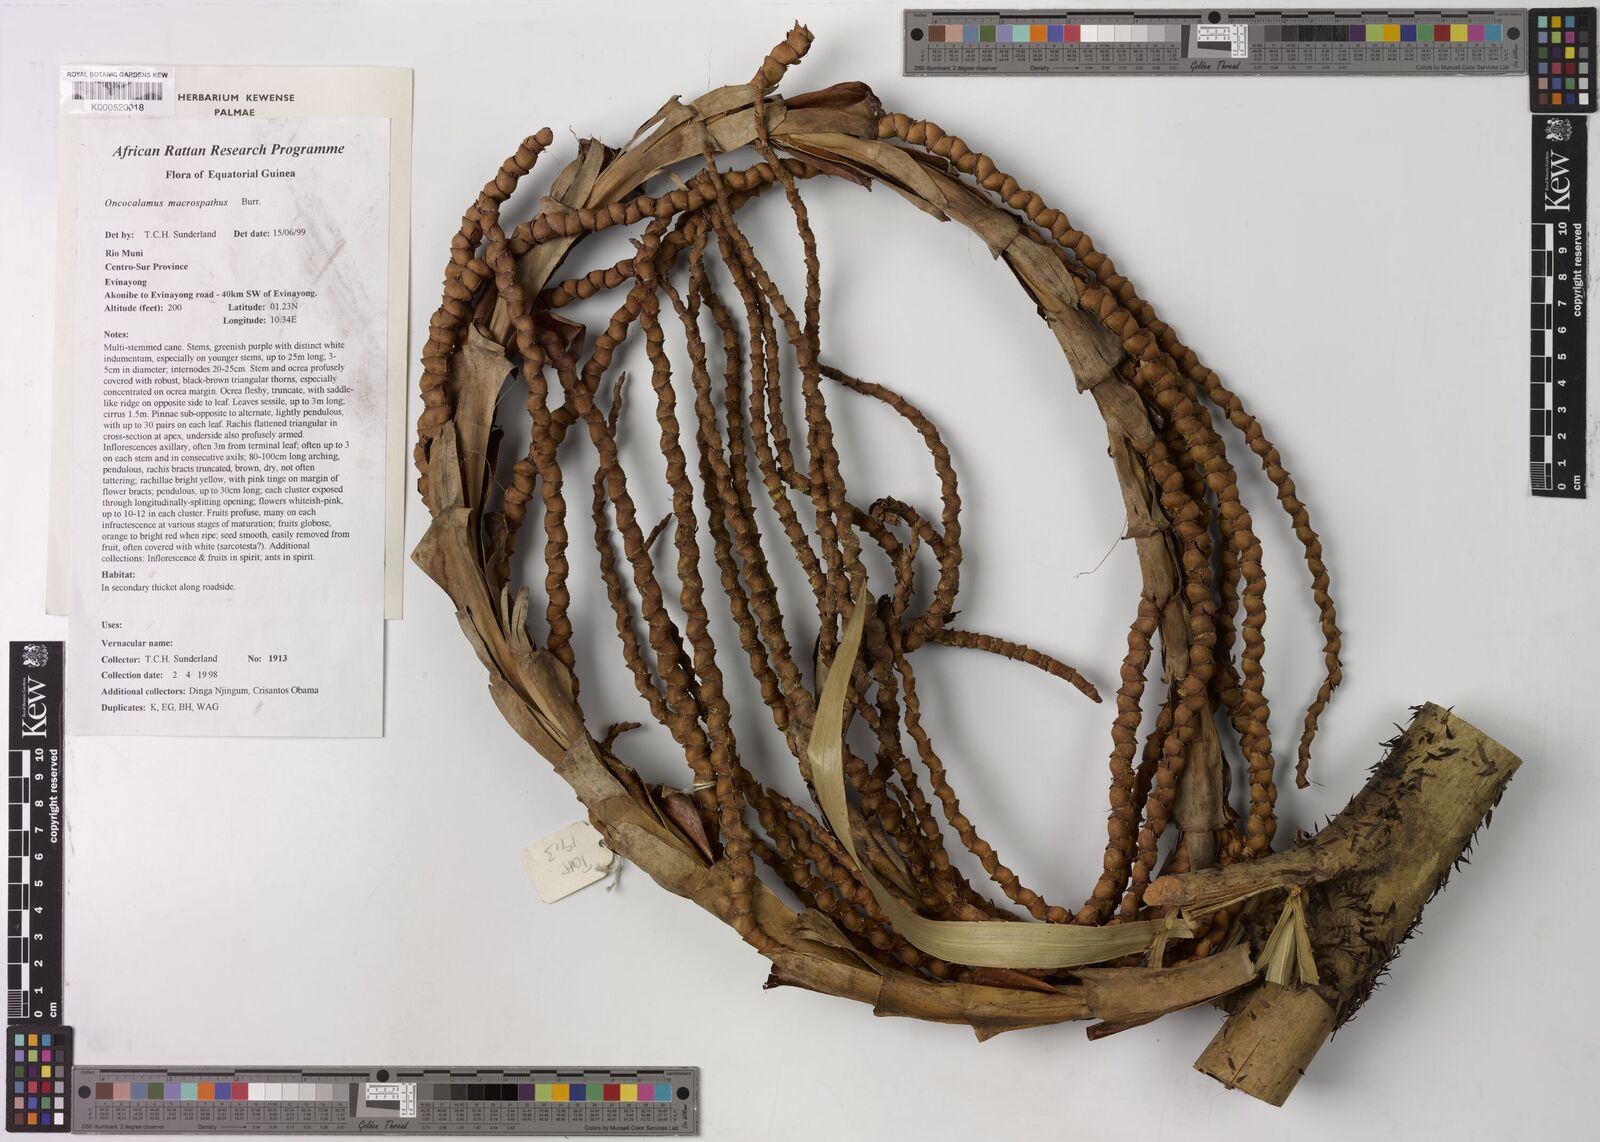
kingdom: Plantae
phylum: Tracheophyta
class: Liliopsida
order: Arecales
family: Arecaceae
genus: Oncocalamus
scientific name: Oncocalamus macrospathus
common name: Rattan
